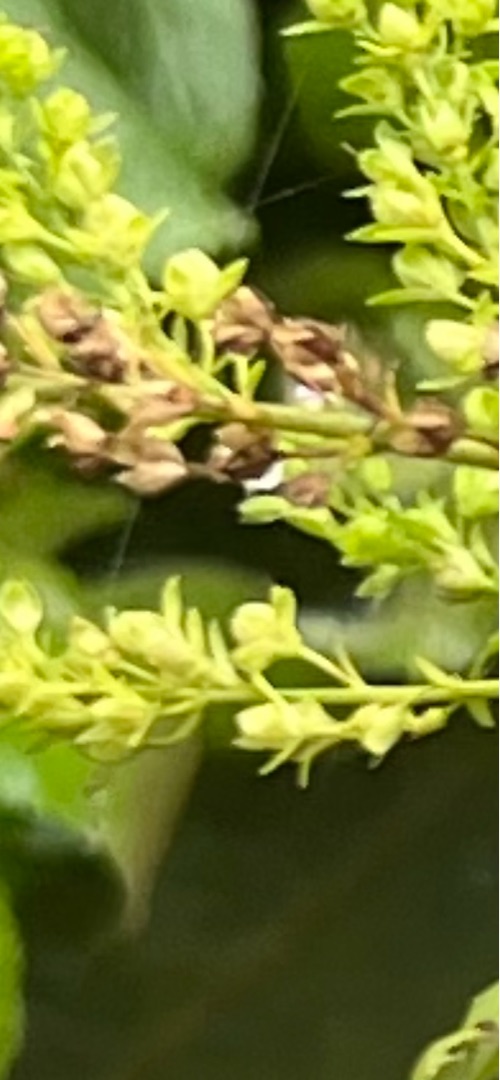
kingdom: Plantae
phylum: Tracheophyta
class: Magnoliopsida
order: Lamiales
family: Plantaginaceae
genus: Veronica
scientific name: Veronica anagallis-aquatica
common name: Lancetbladet ærenpris
